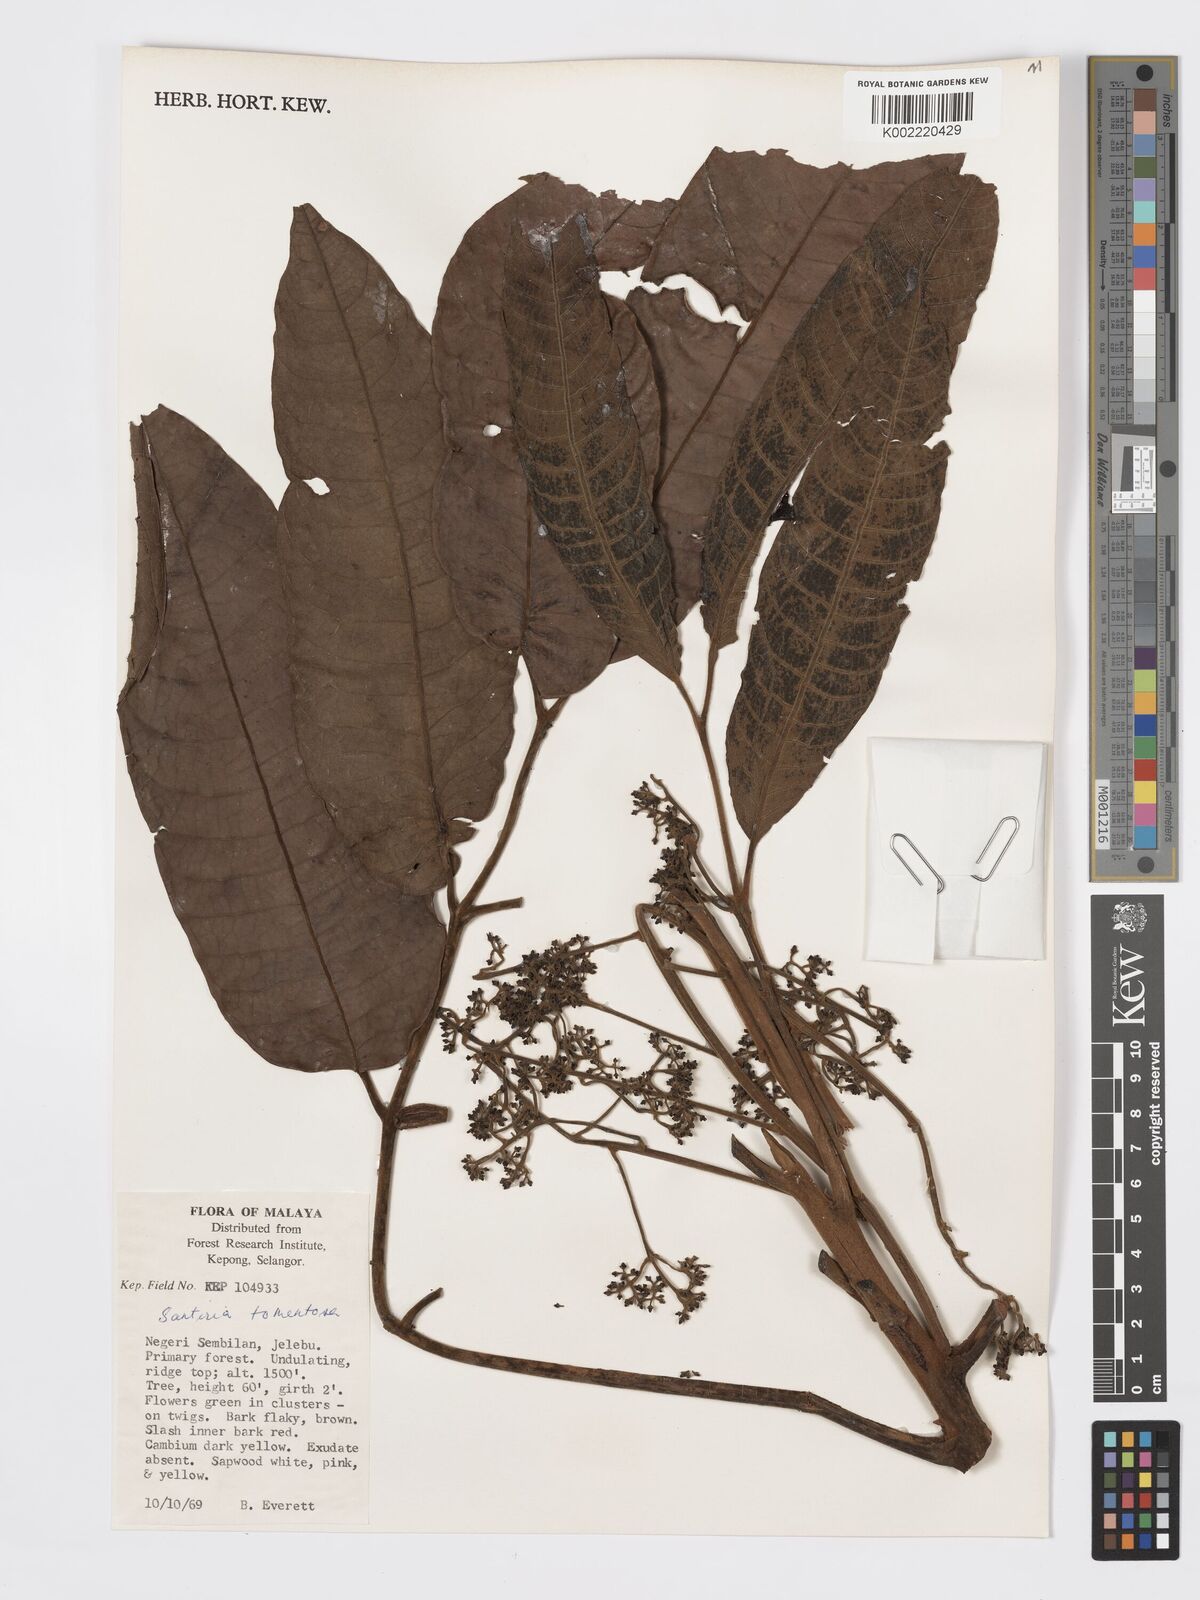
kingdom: Plantae
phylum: Tracheophyta
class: Magnoliopsida
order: Sapindales
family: Burseraceae
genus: Santiria
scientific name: Santiria tomentosa
